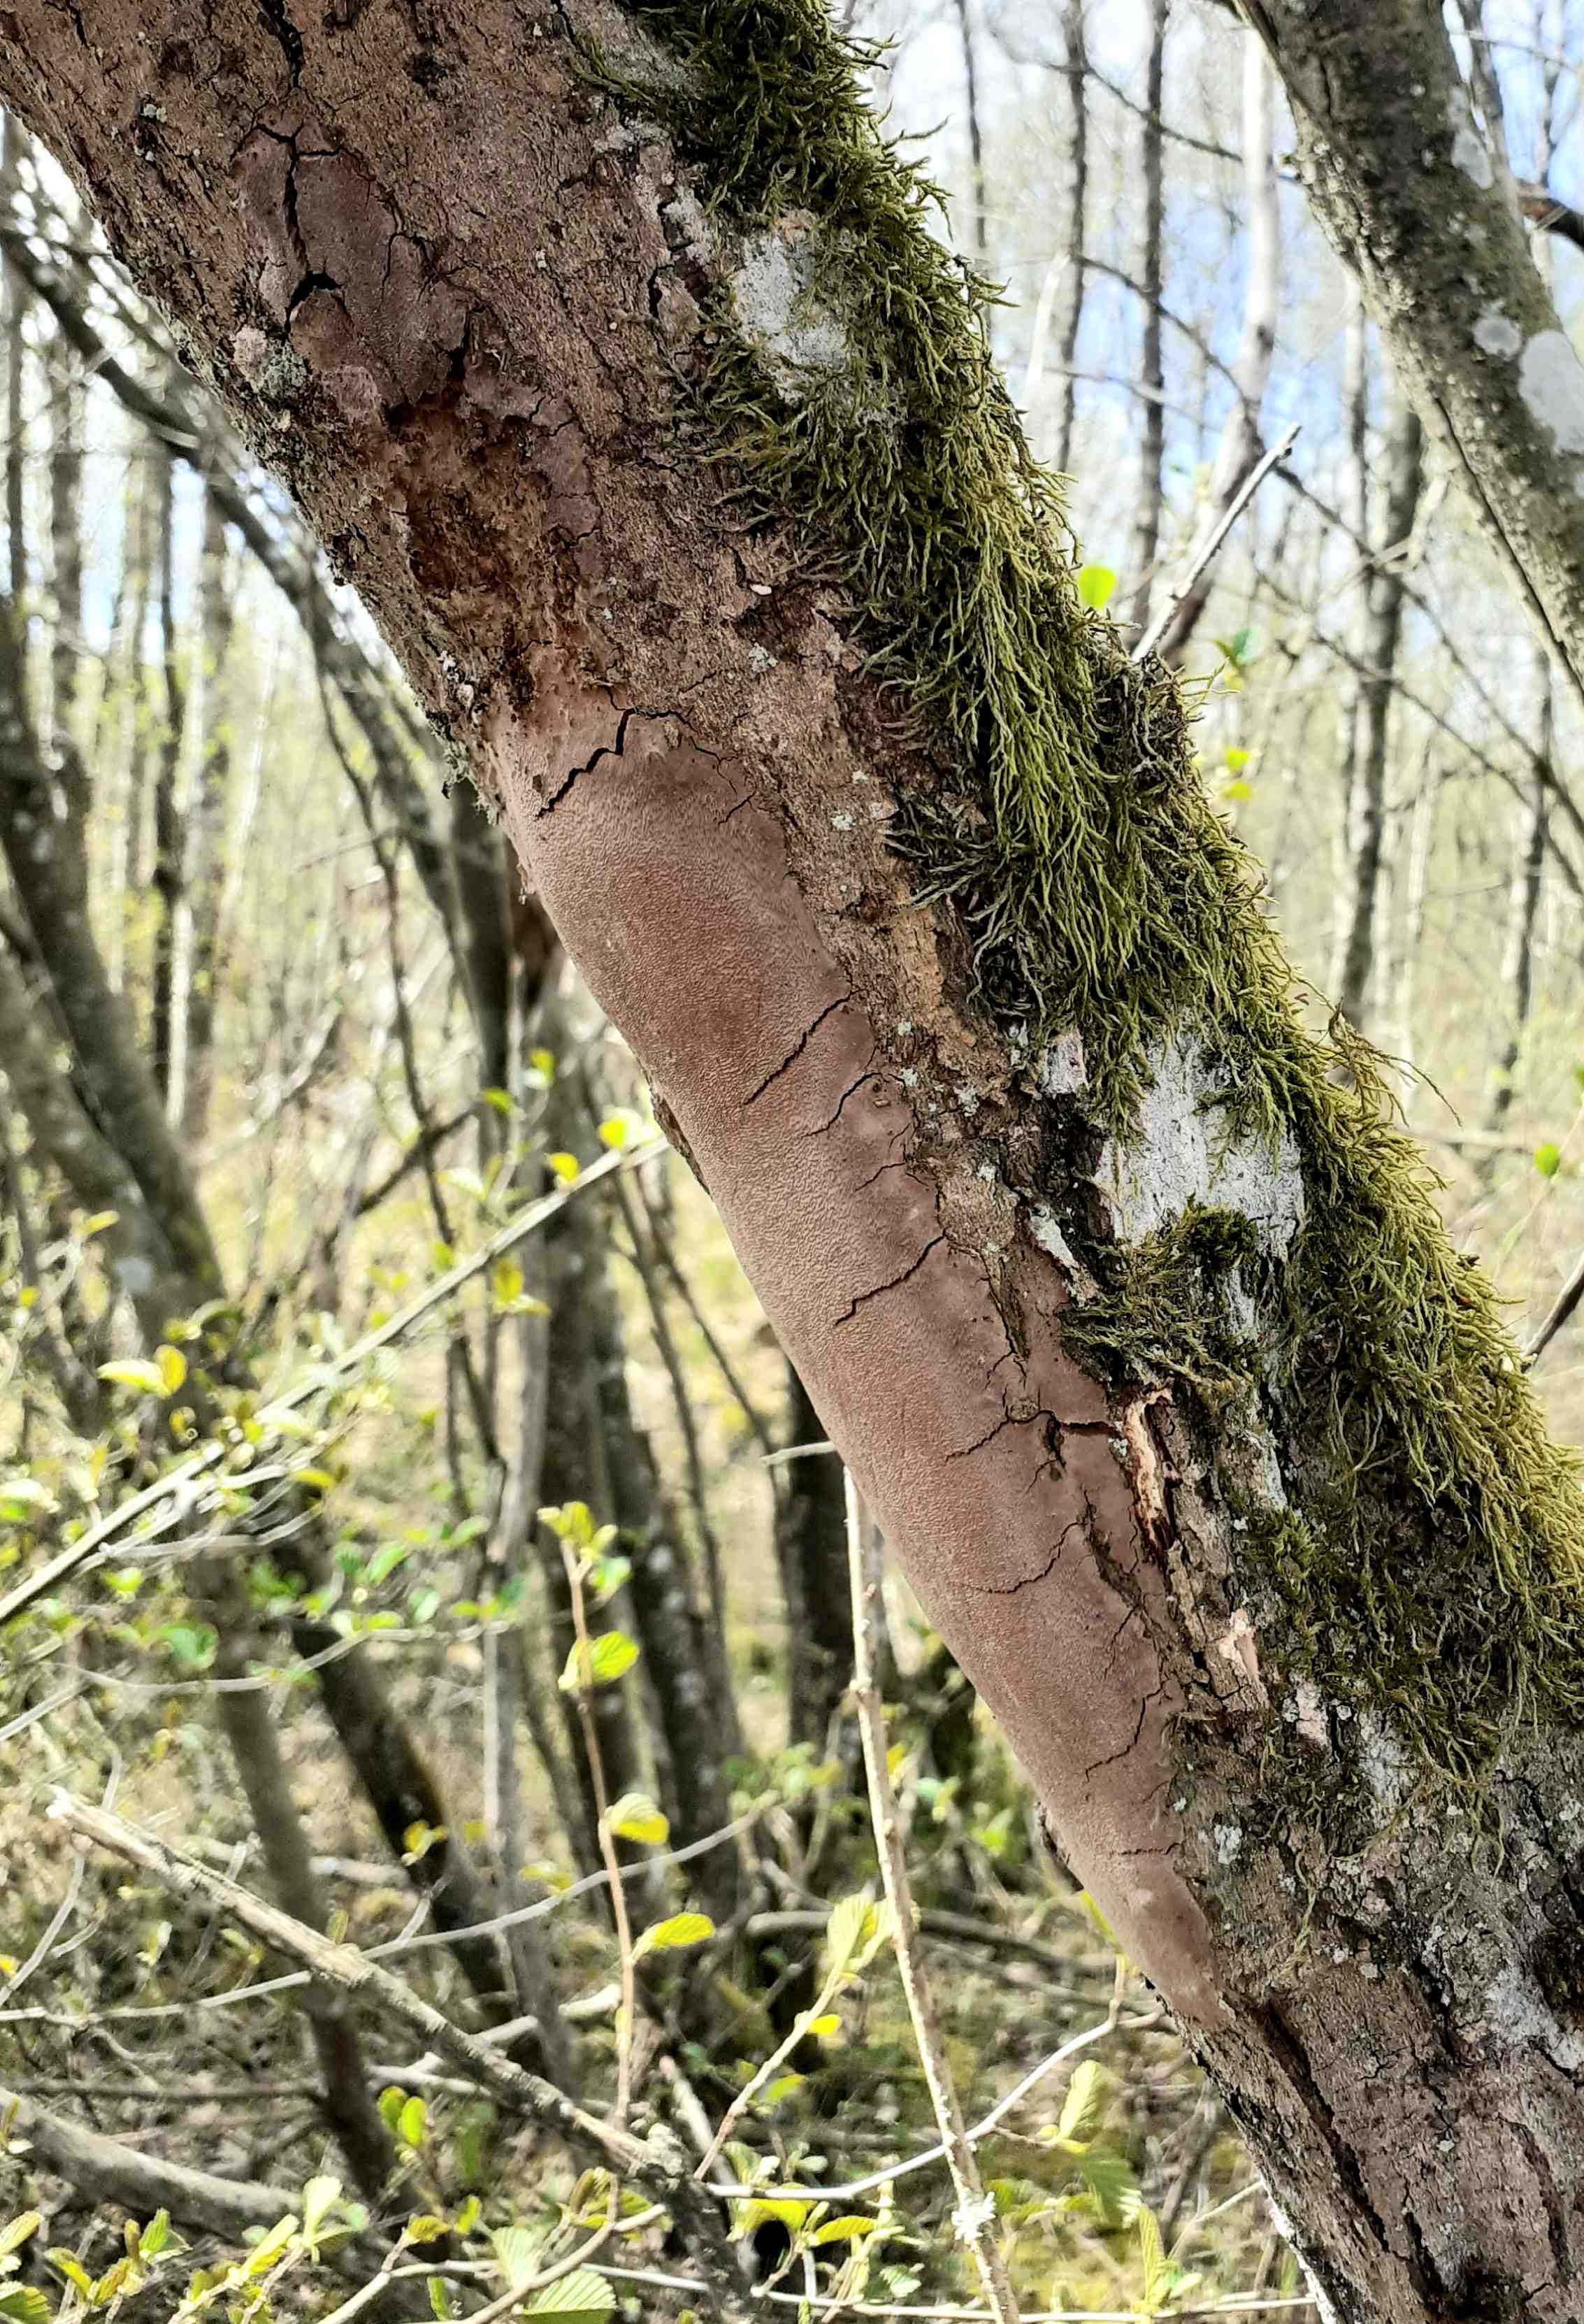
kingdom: Fungi
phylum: Basidiomycota
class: Agaricomycetes
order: Hymenochaetales
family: Hymenochaetaceae
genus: Fomitiporia
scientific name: Fomitiporia punctata
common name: pude-ildporesvamp
